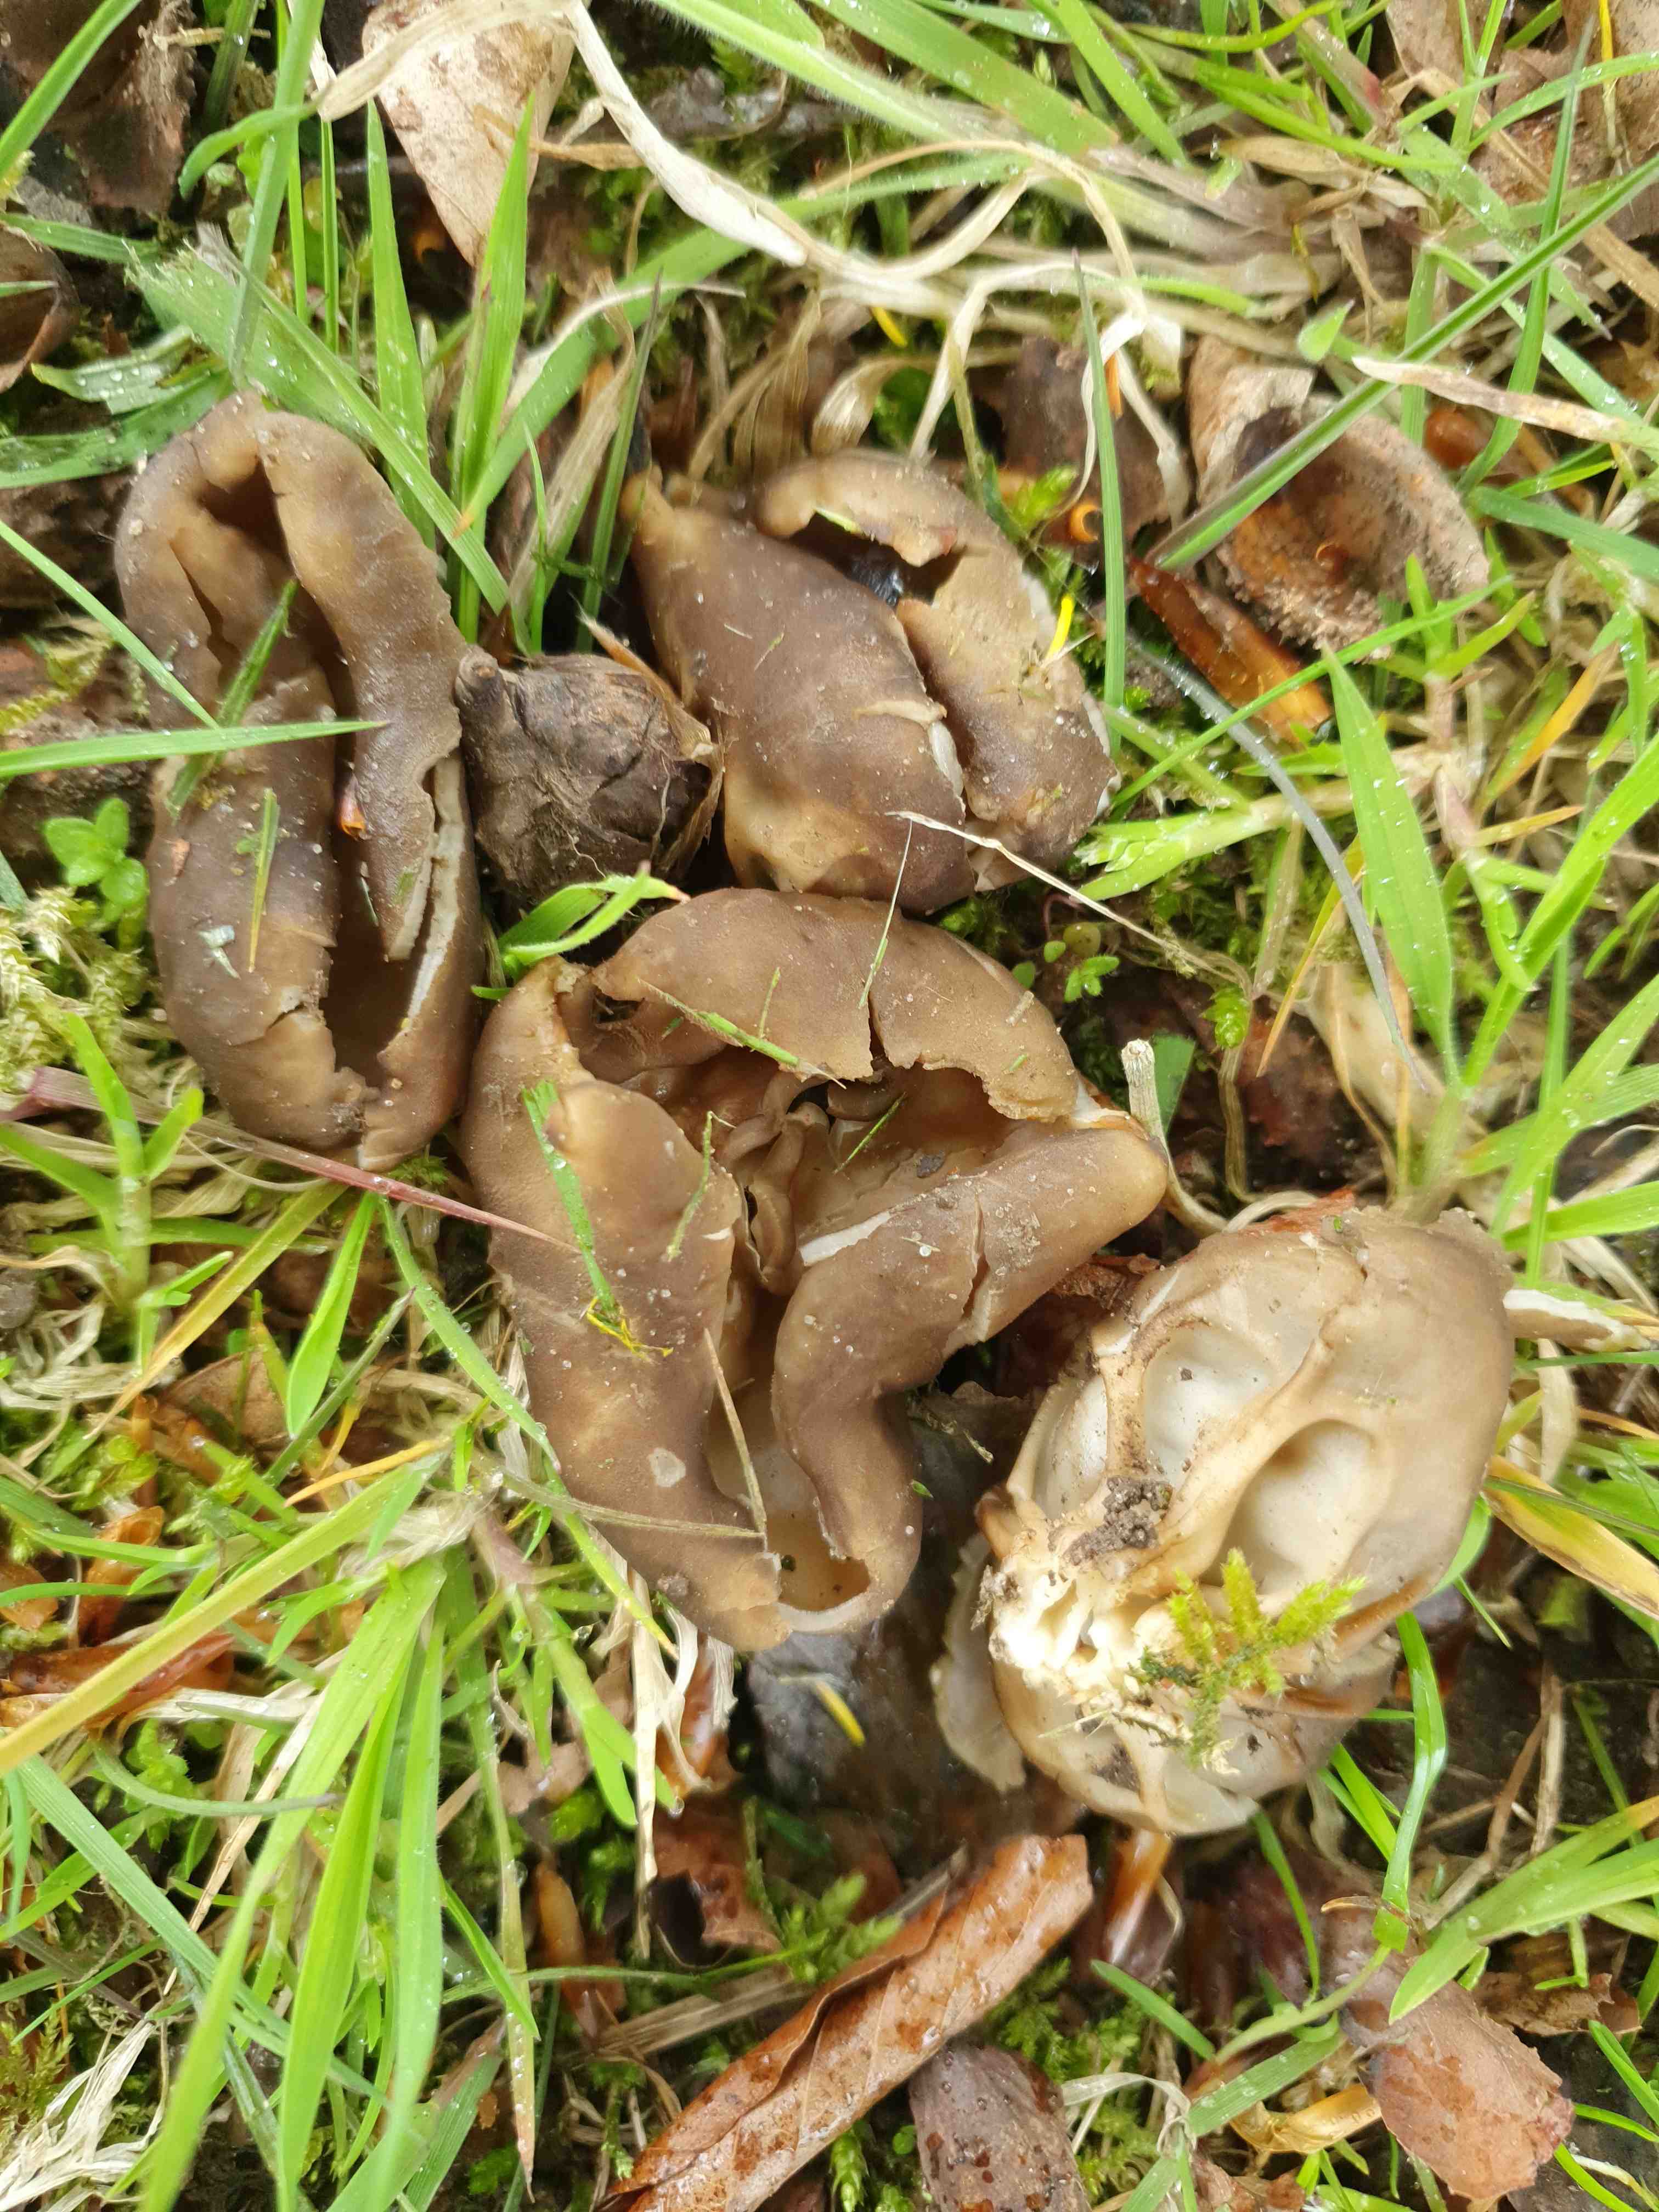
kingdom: Fungi
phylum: Ascomycota
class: Pezizomycetes
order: Pezizales
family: Helvellaceae
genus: Helvella
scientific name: Helvella acetabulum
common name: pokal-foldhat
